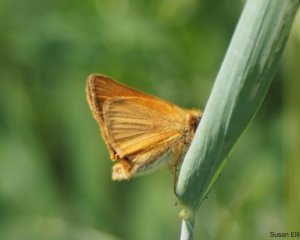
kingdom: Animalia
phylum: Arthropoda
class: Insecta
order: Lepidoptera
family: Hesperiidae
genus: Ancyloxypha
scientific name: Ancyloxypha numitor
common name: Least Skipper
